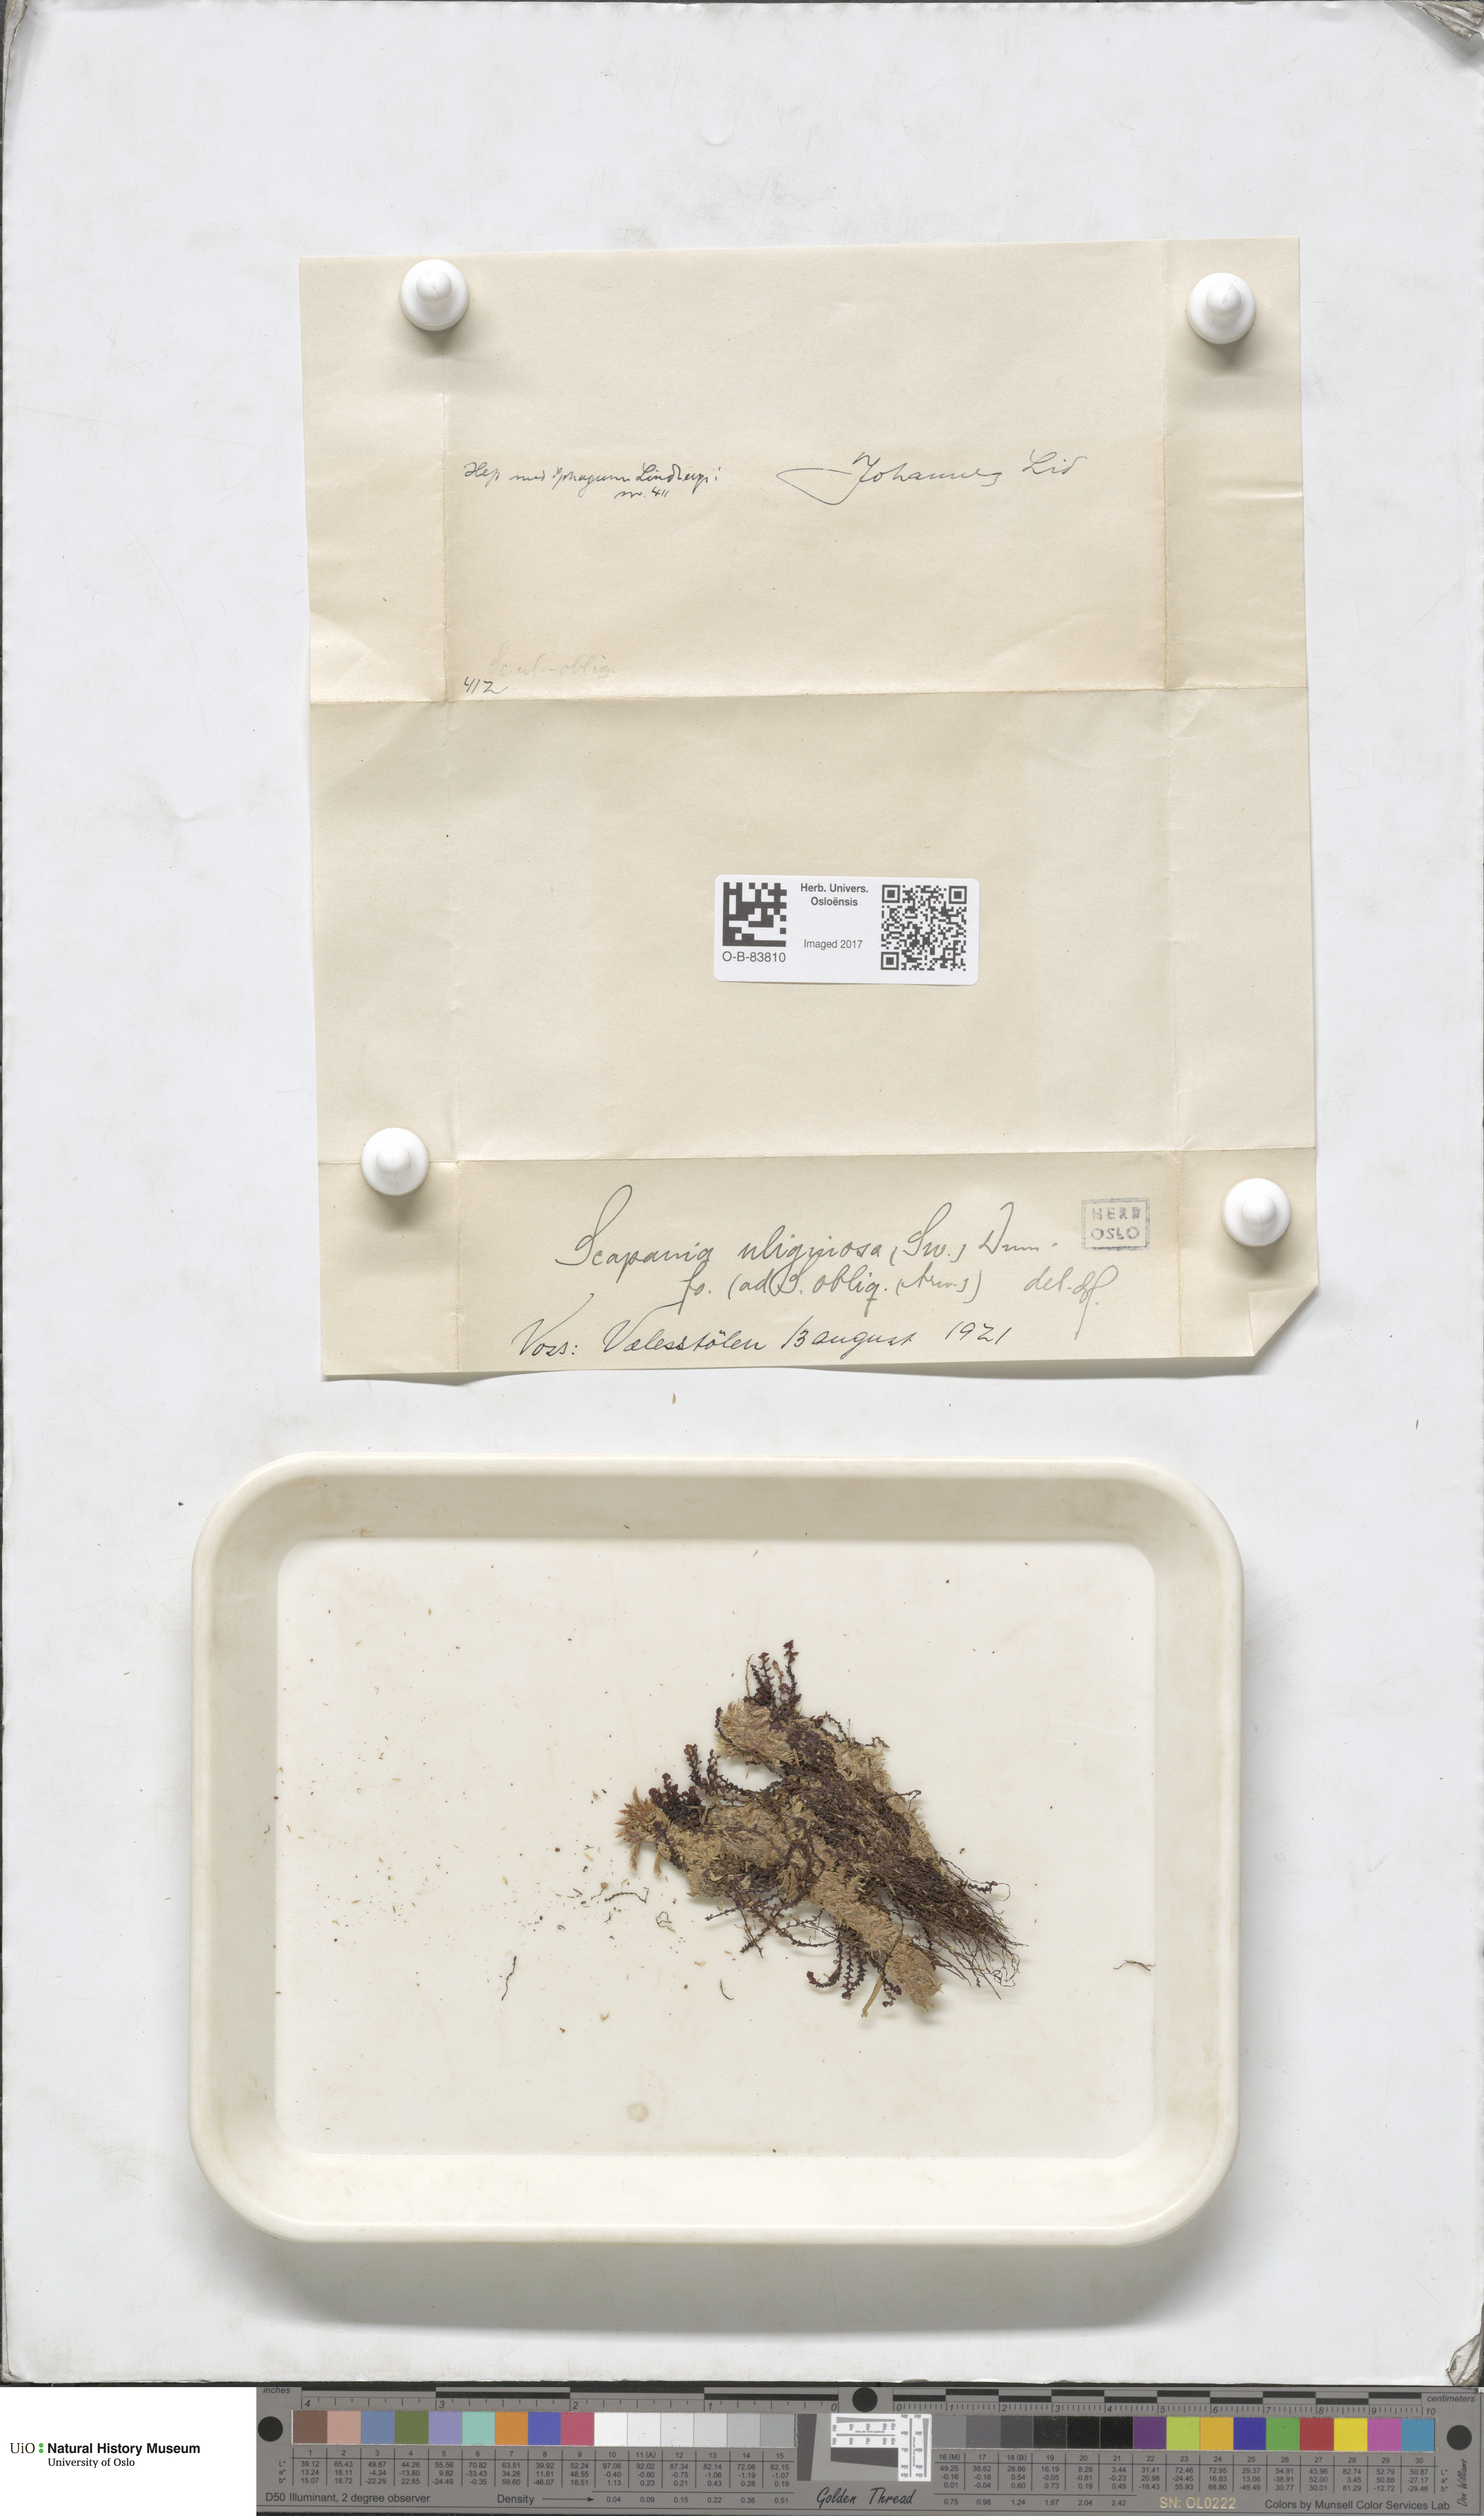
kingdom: Plantae
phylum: Marchantiophyta
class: Jungermanniopsida
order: Jungermanniales
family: Scapaniaceae
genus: Scapania
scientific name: Scapania uliginosa
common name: Marsh earwort
